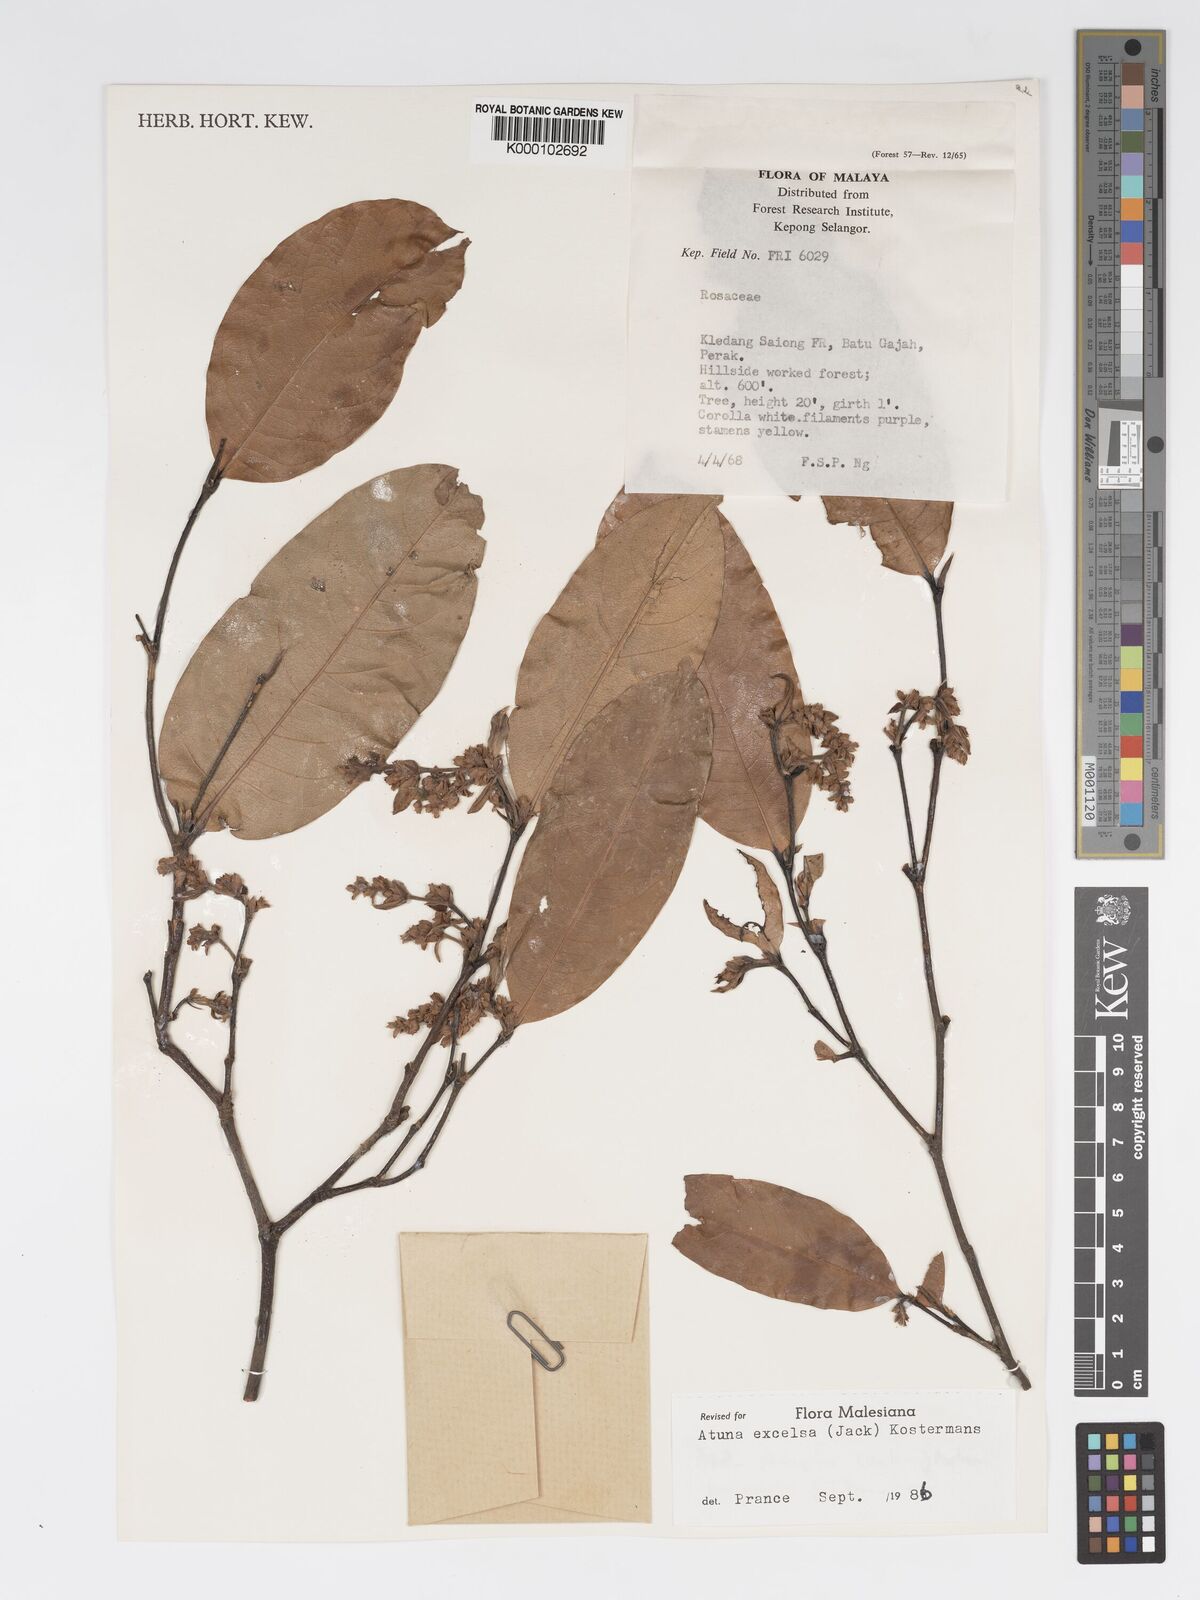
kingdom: Plantae
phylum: Tracheophyta
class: Magnoliopsida
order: Malpighiales
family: Chrysobalanaceae
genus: Atuna
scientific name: Atuna excelsa
